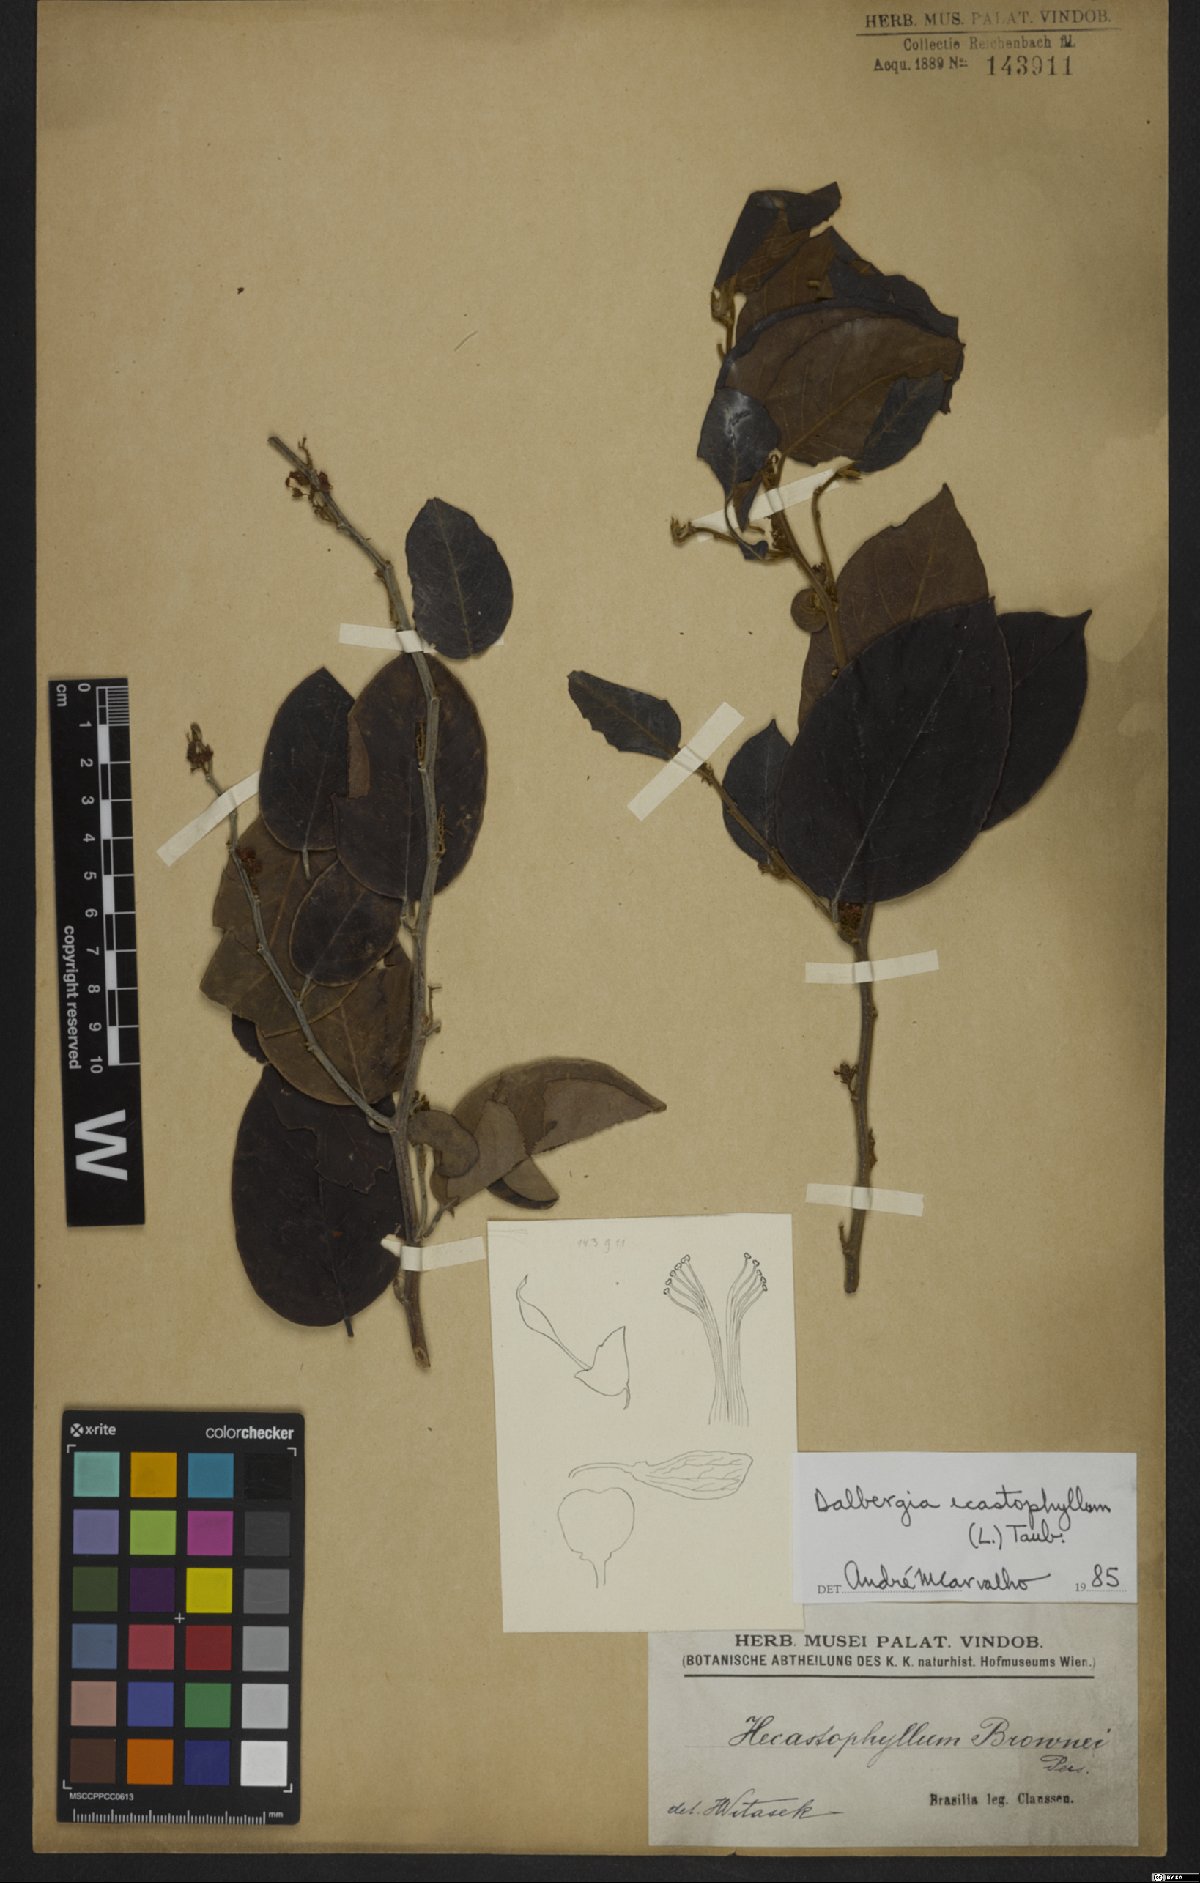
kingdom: Plantae
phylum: Tracheophyta
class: Magnoliopsida
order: Fabales
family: Fabaceae
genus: Dalbergia
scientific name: Dalbergia ecastaphyllum
